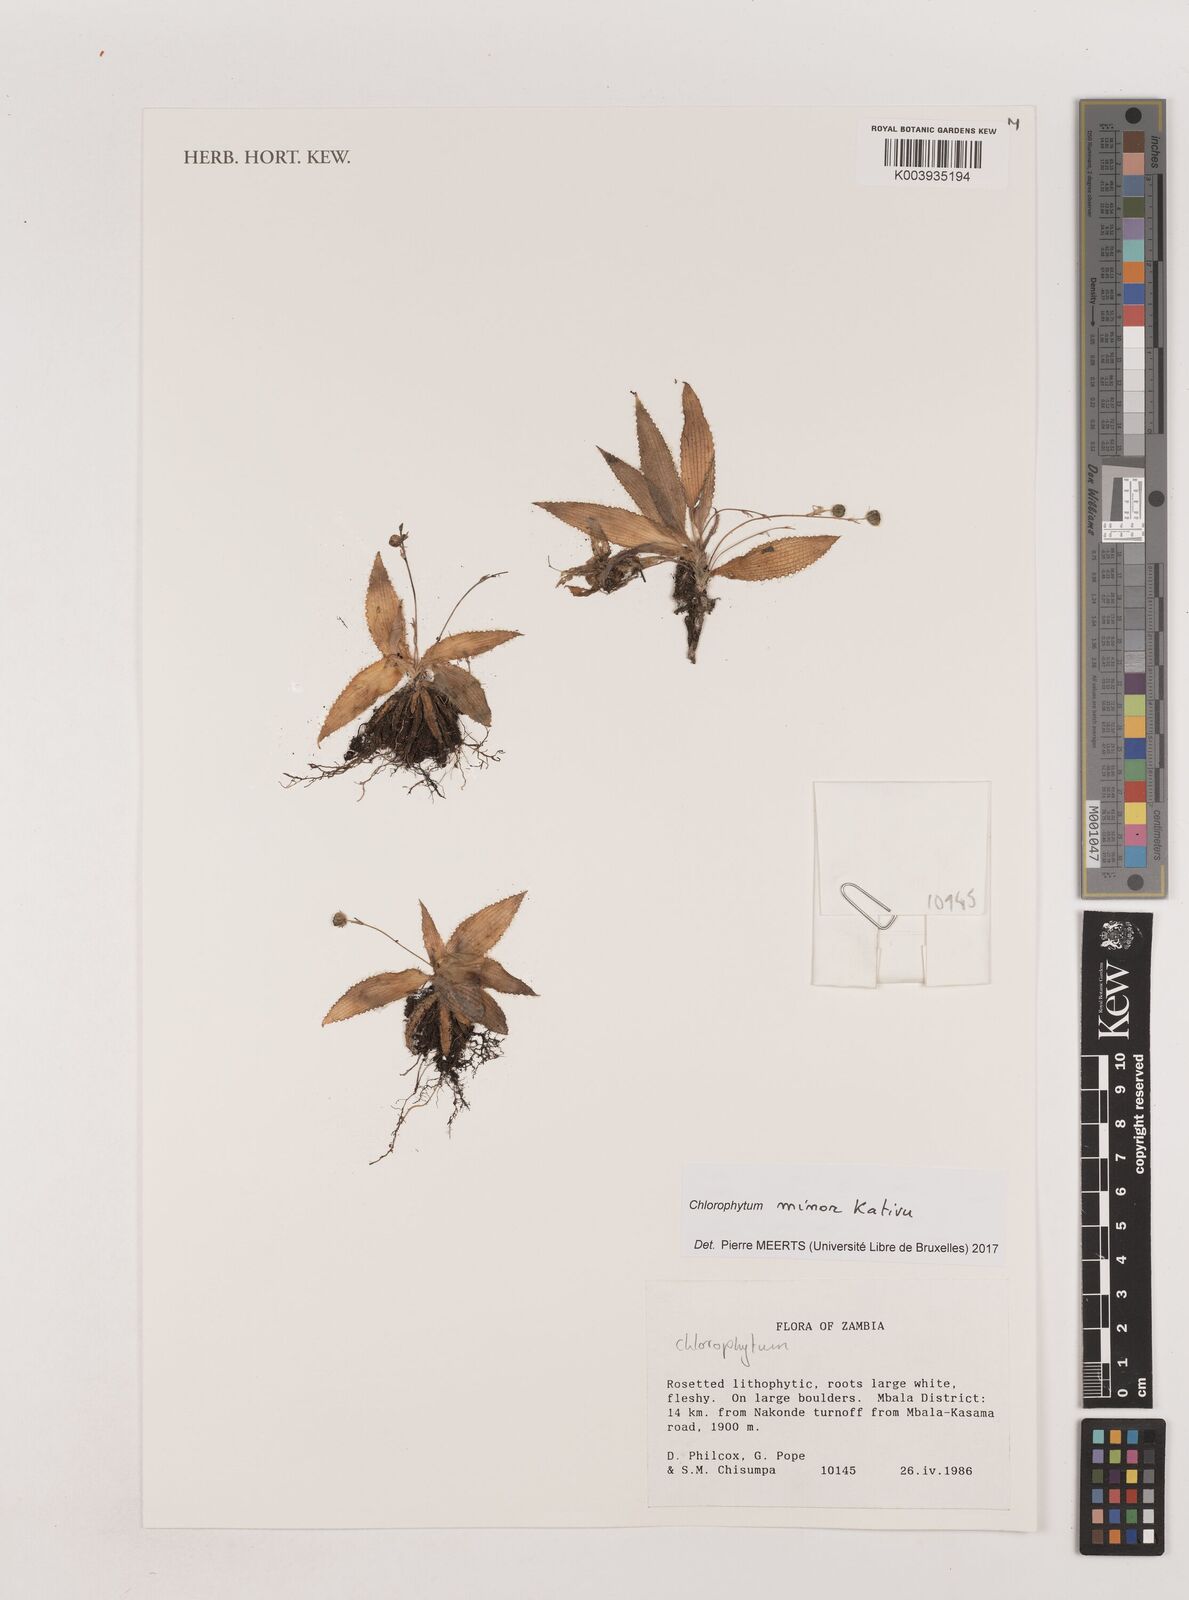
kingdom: Plantae
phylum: Tracheophyta
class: Liliopsida
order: Asparagales
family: Asparagaceae
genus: Chlorophytum
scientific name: Chlorophytum minor
